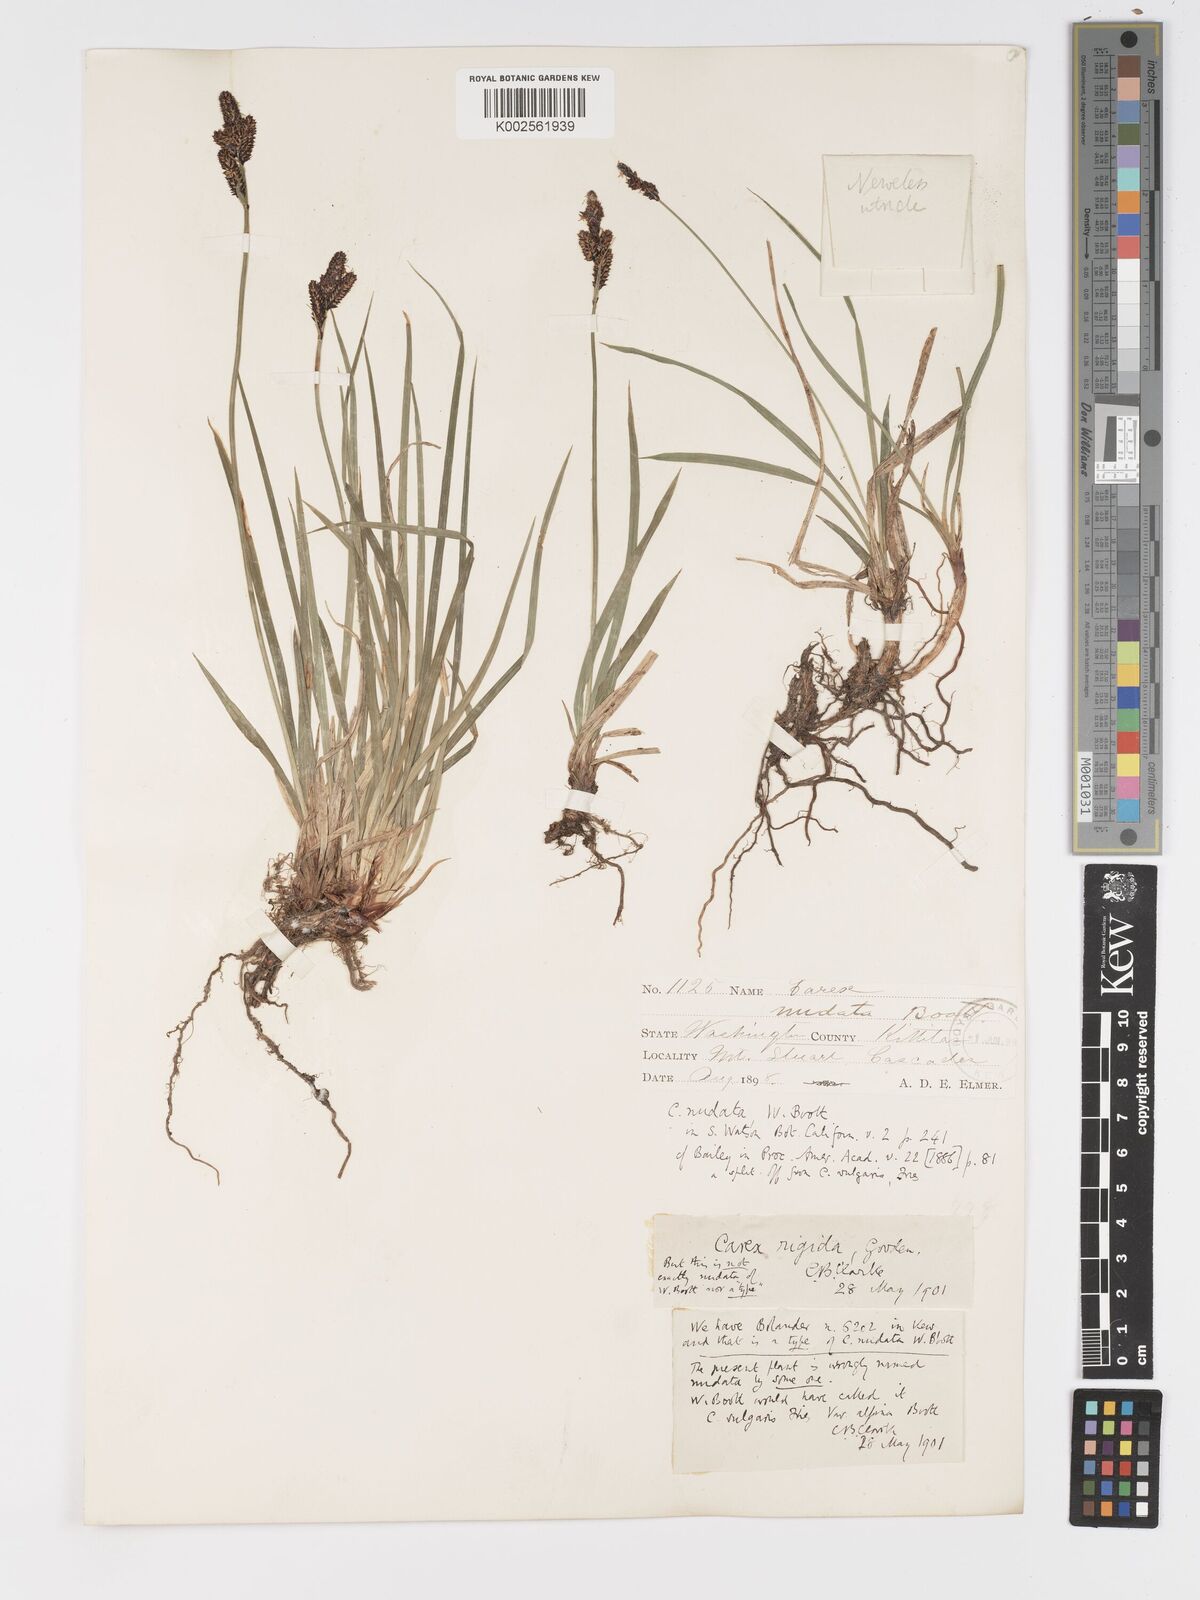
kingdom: Plantae
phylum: Tracheophyta
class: Liliopsida
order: Poales
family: Cyperaceae
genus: Carex
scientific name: Carex bigelowii
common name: Stiff sedge
